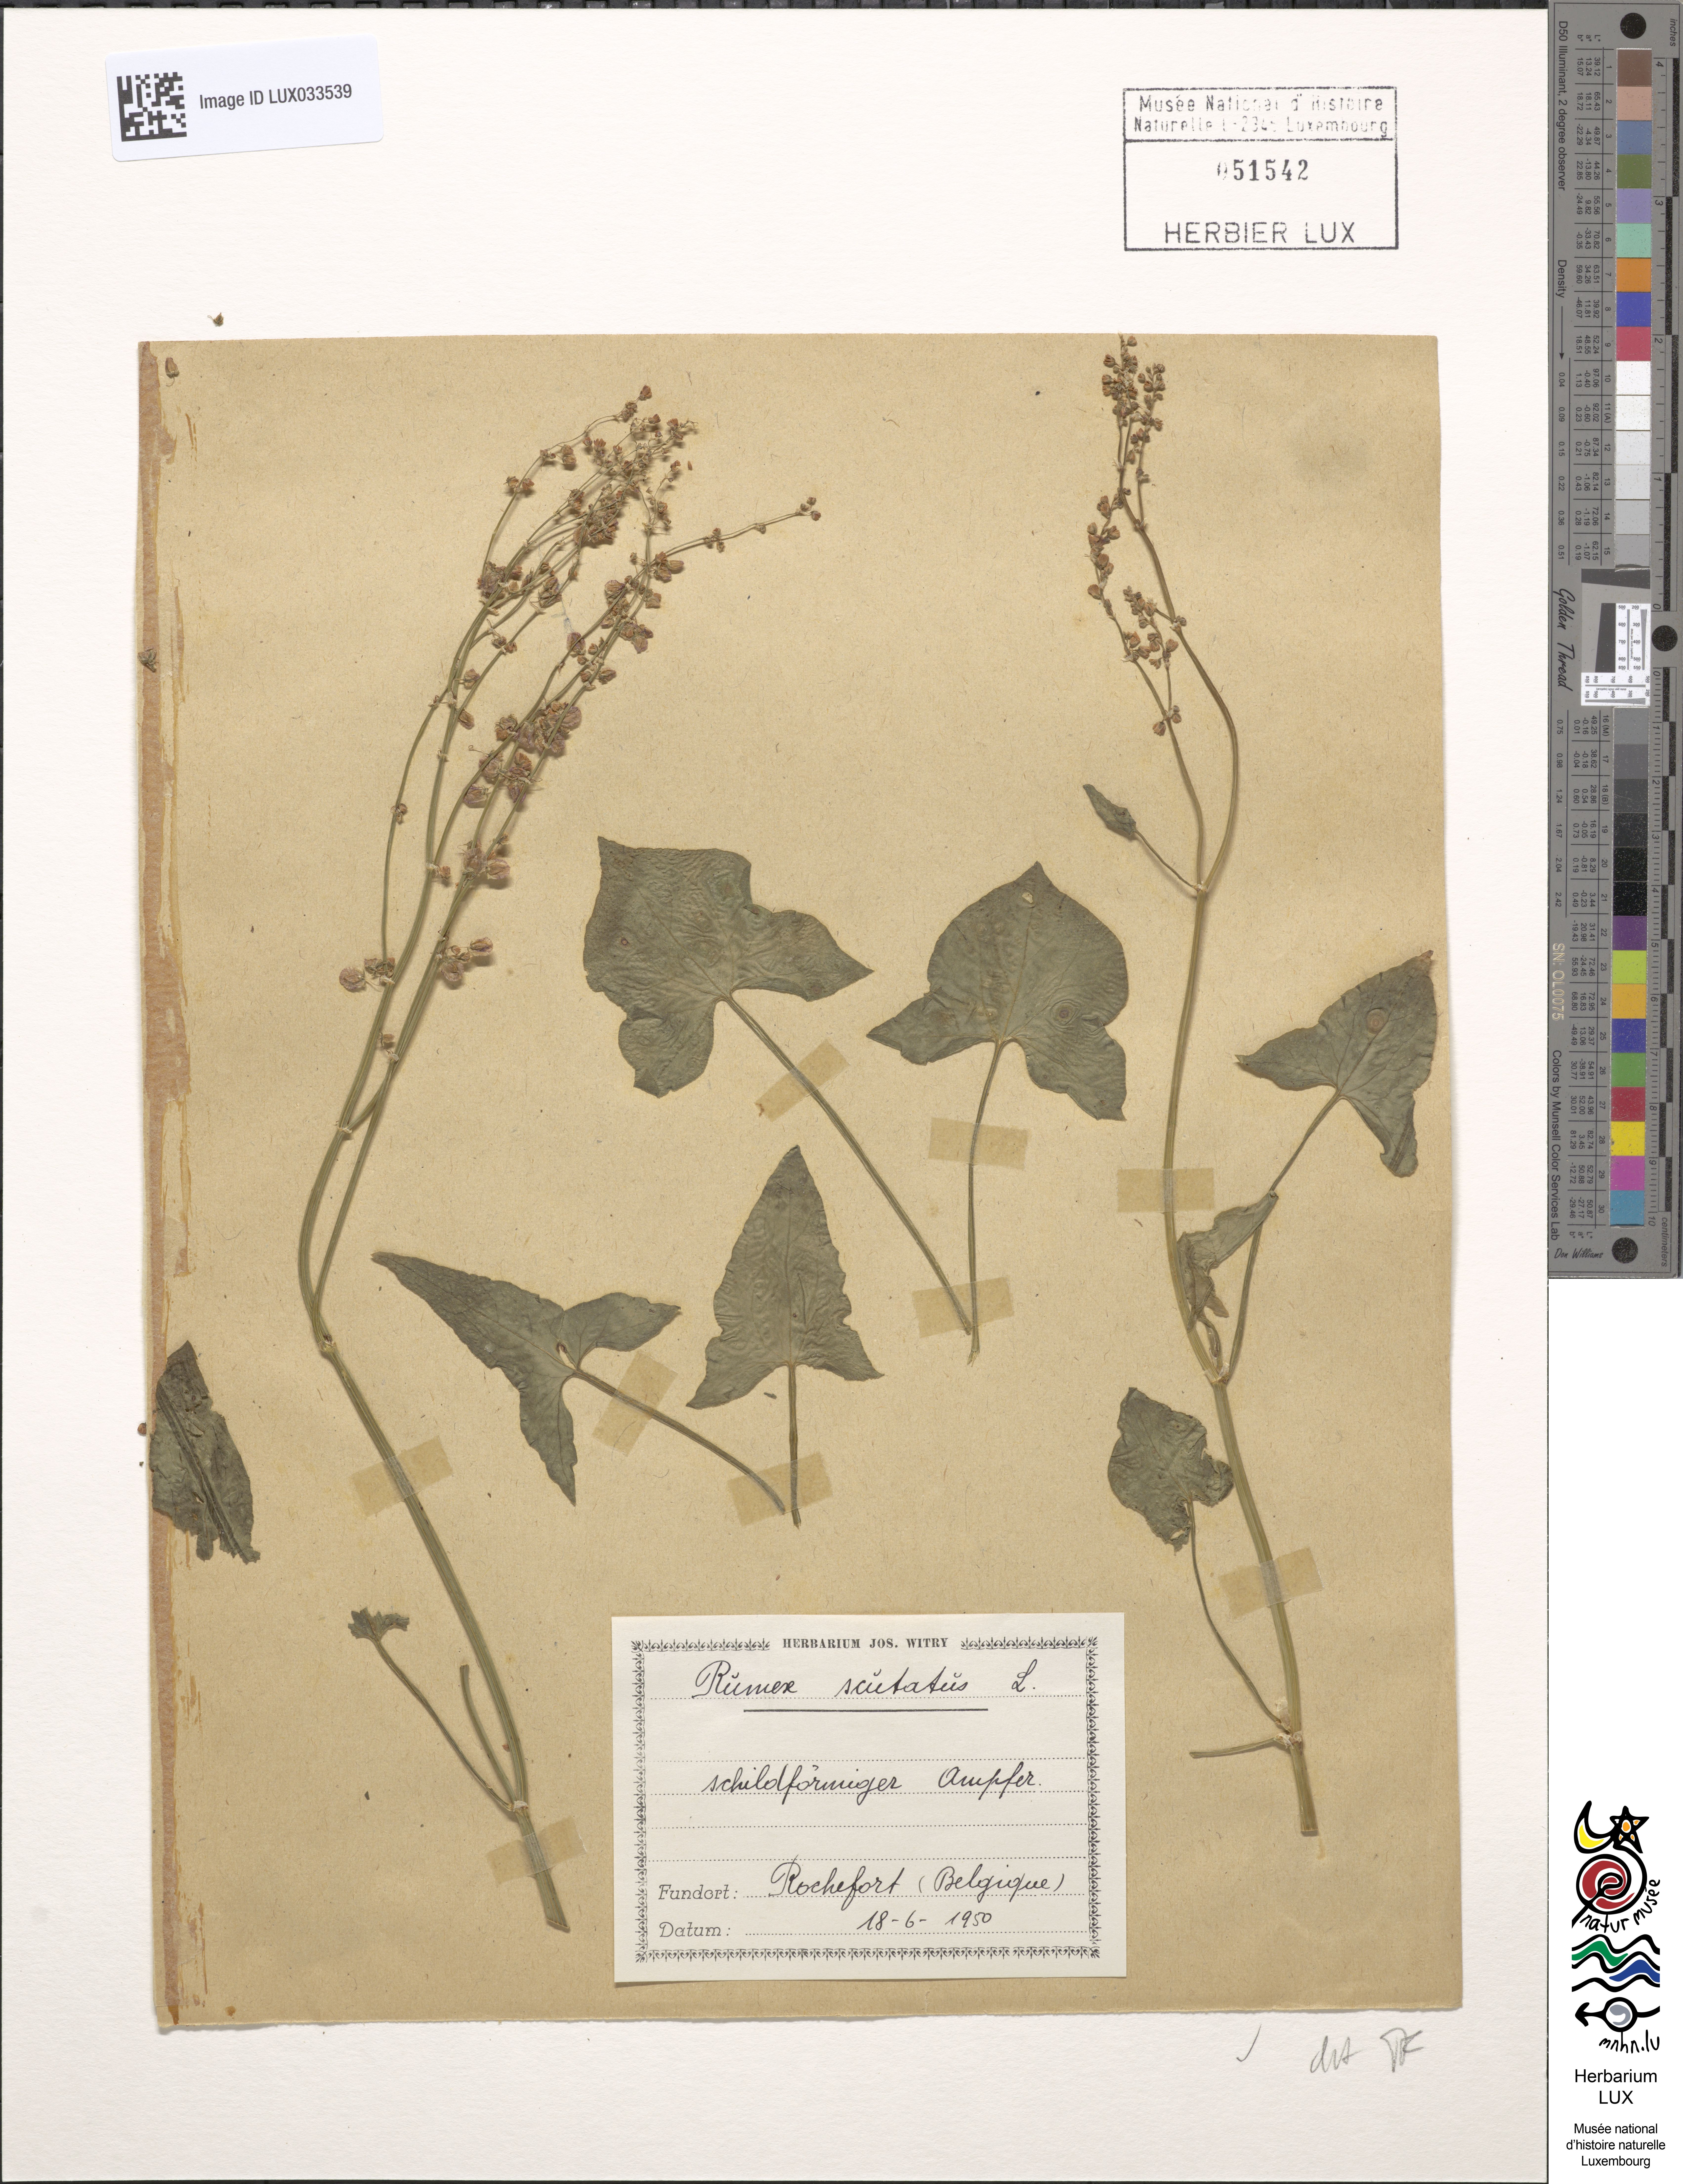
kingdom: Plantae
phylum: Tracheophyta
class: Magnoliopsida
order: Caryophyllales
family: Polygonaceae
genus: Rumex
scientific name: Rumex scutatus
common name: French sorrel
